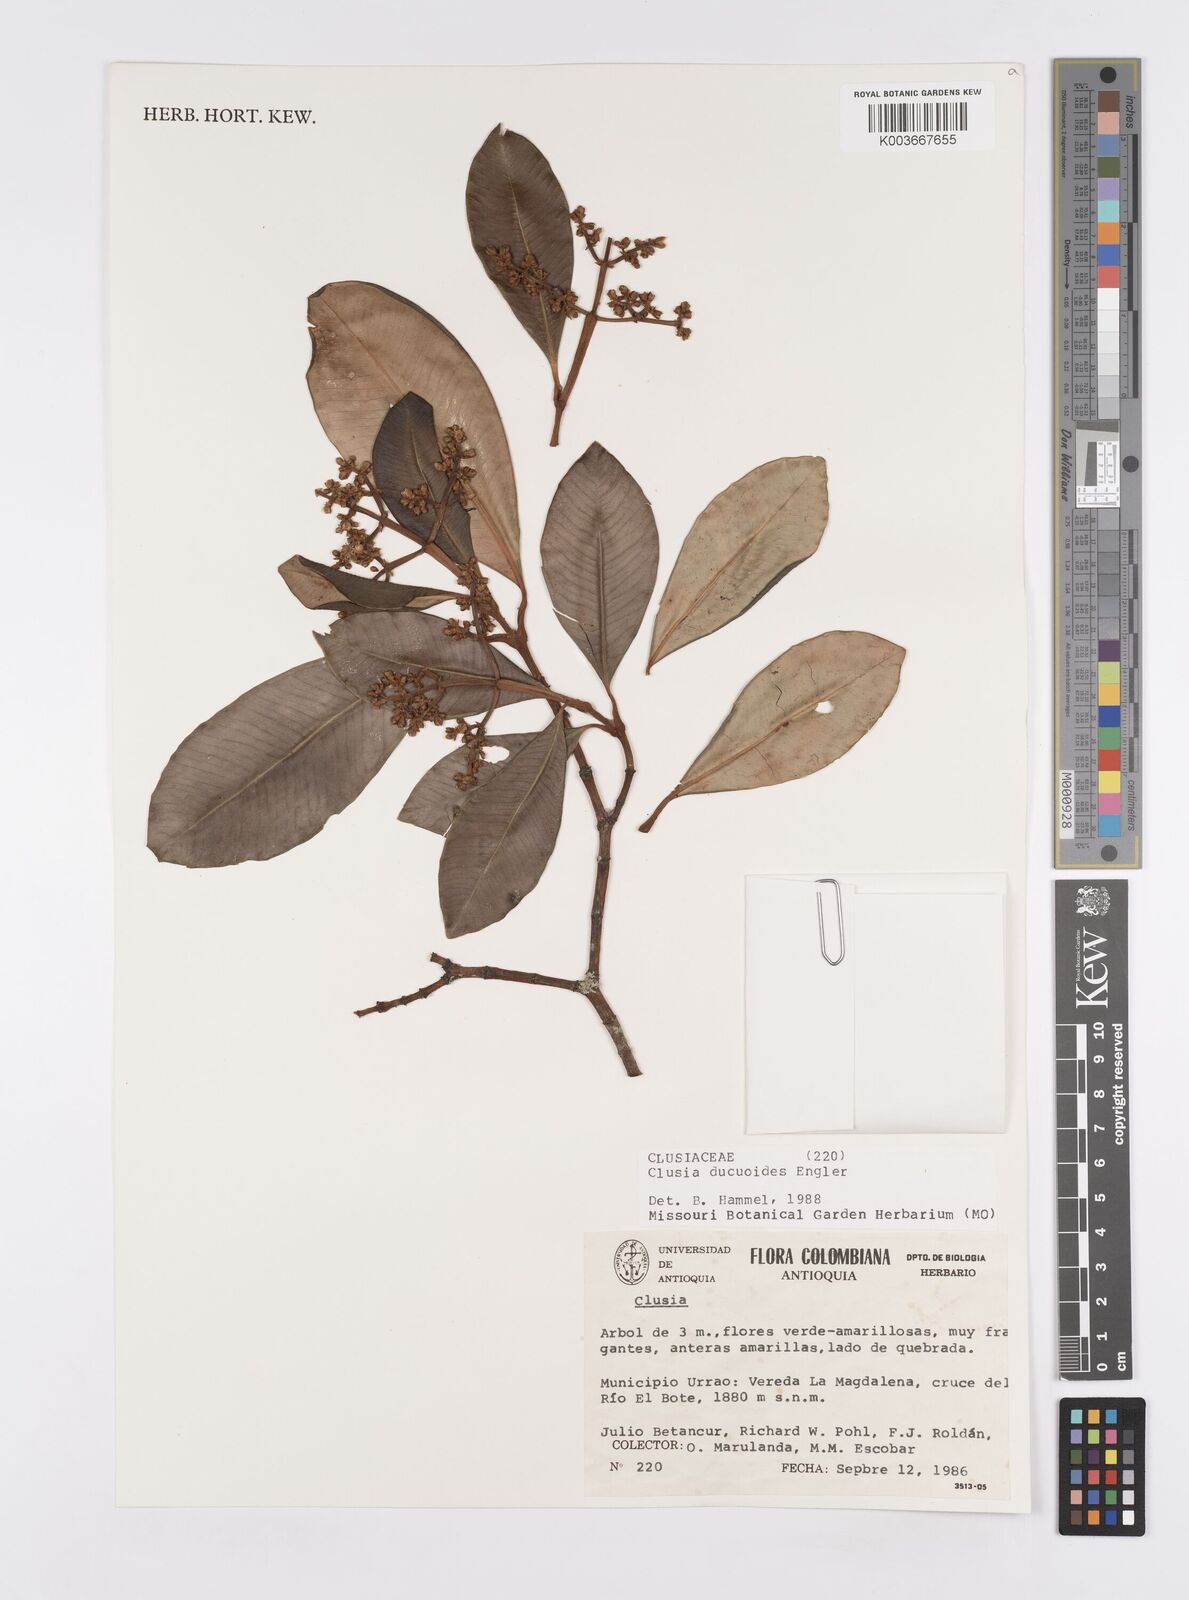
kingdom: Plantae
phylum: Tracheophyta
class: Magnoliopsida
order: Malpighiales
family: Clusiaceae
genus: Clusia
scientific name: Clusia ducuoides
